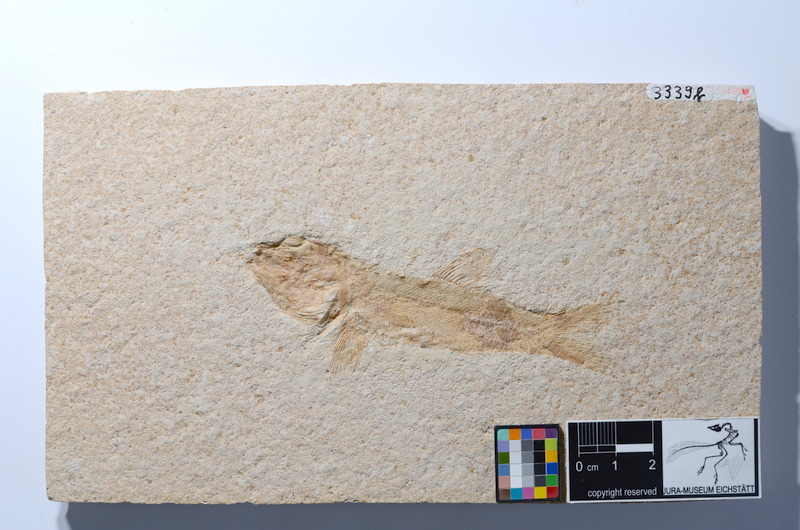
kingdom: Animalia
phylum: Chordata
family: Ophiopsiellidae
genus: Furo
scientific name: Furo longiserratus
